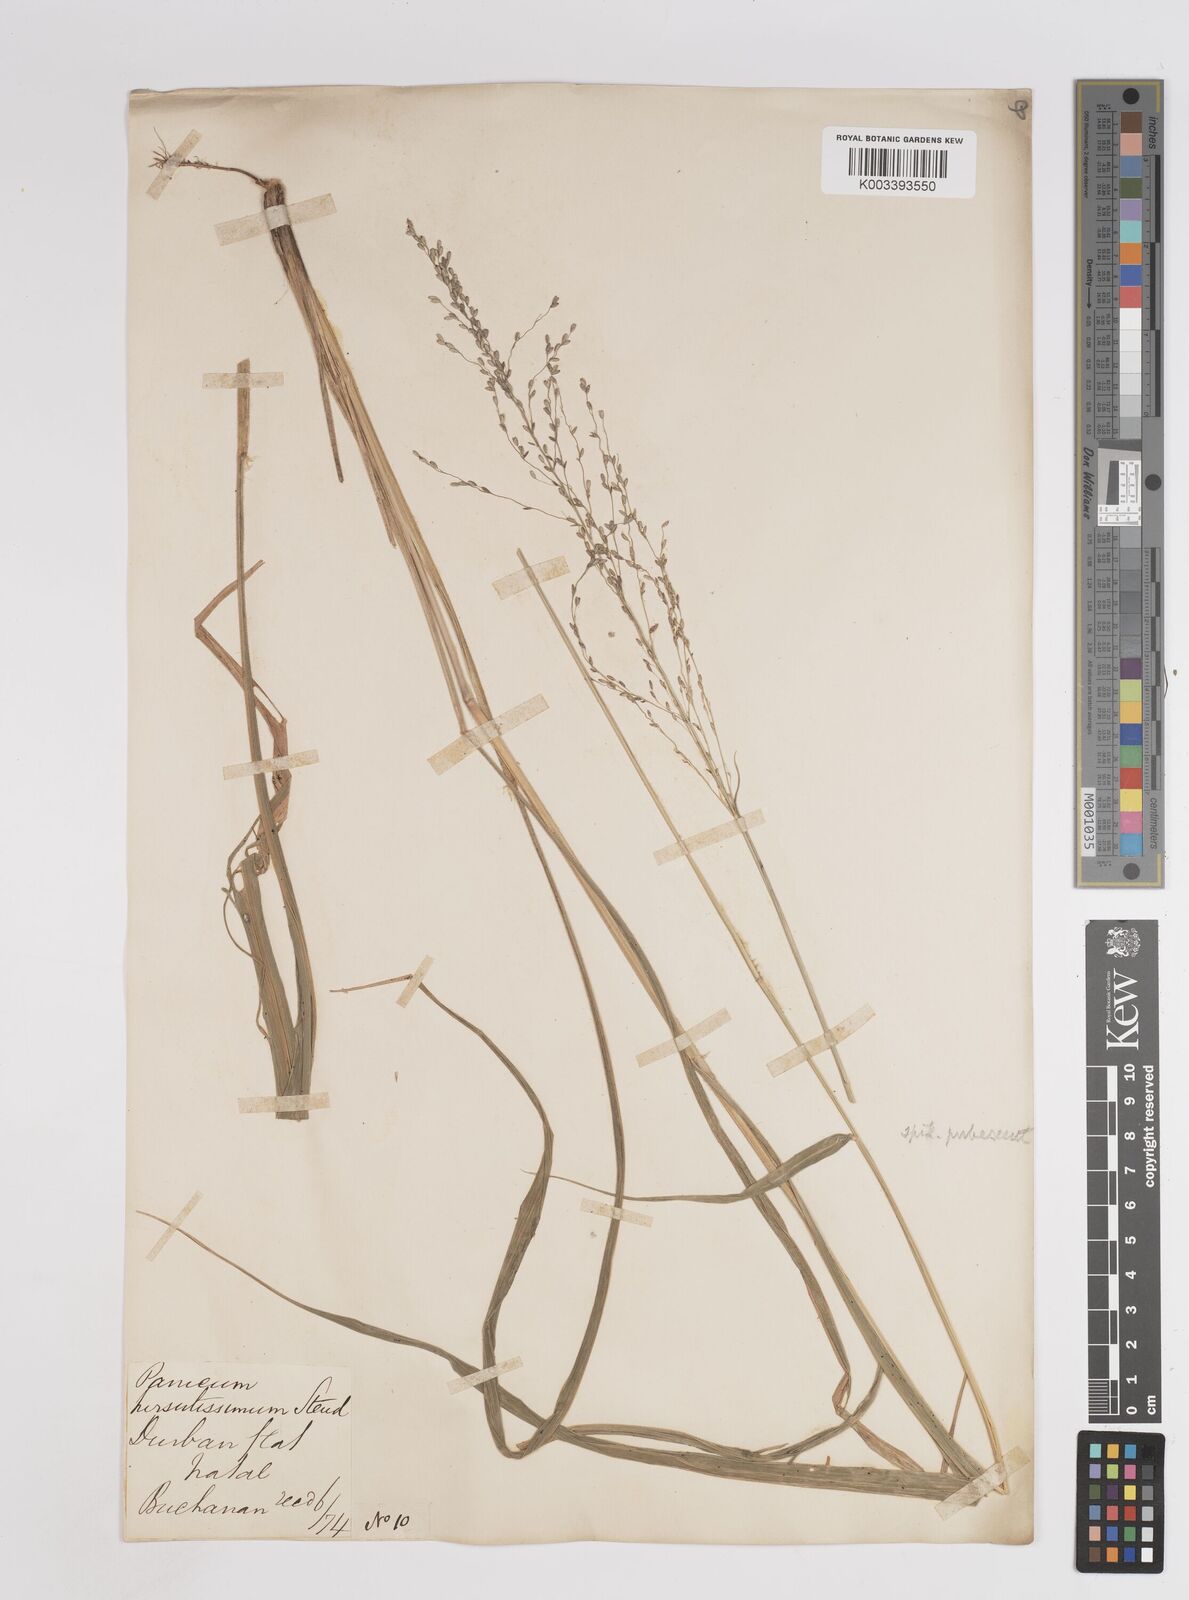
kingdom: Plantae
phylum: Tracheophyta
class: Liliopsida
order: Poales
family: Poaceae
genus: Megathyrsus
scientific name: Megathyrsus maximus
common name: Guineagrass
